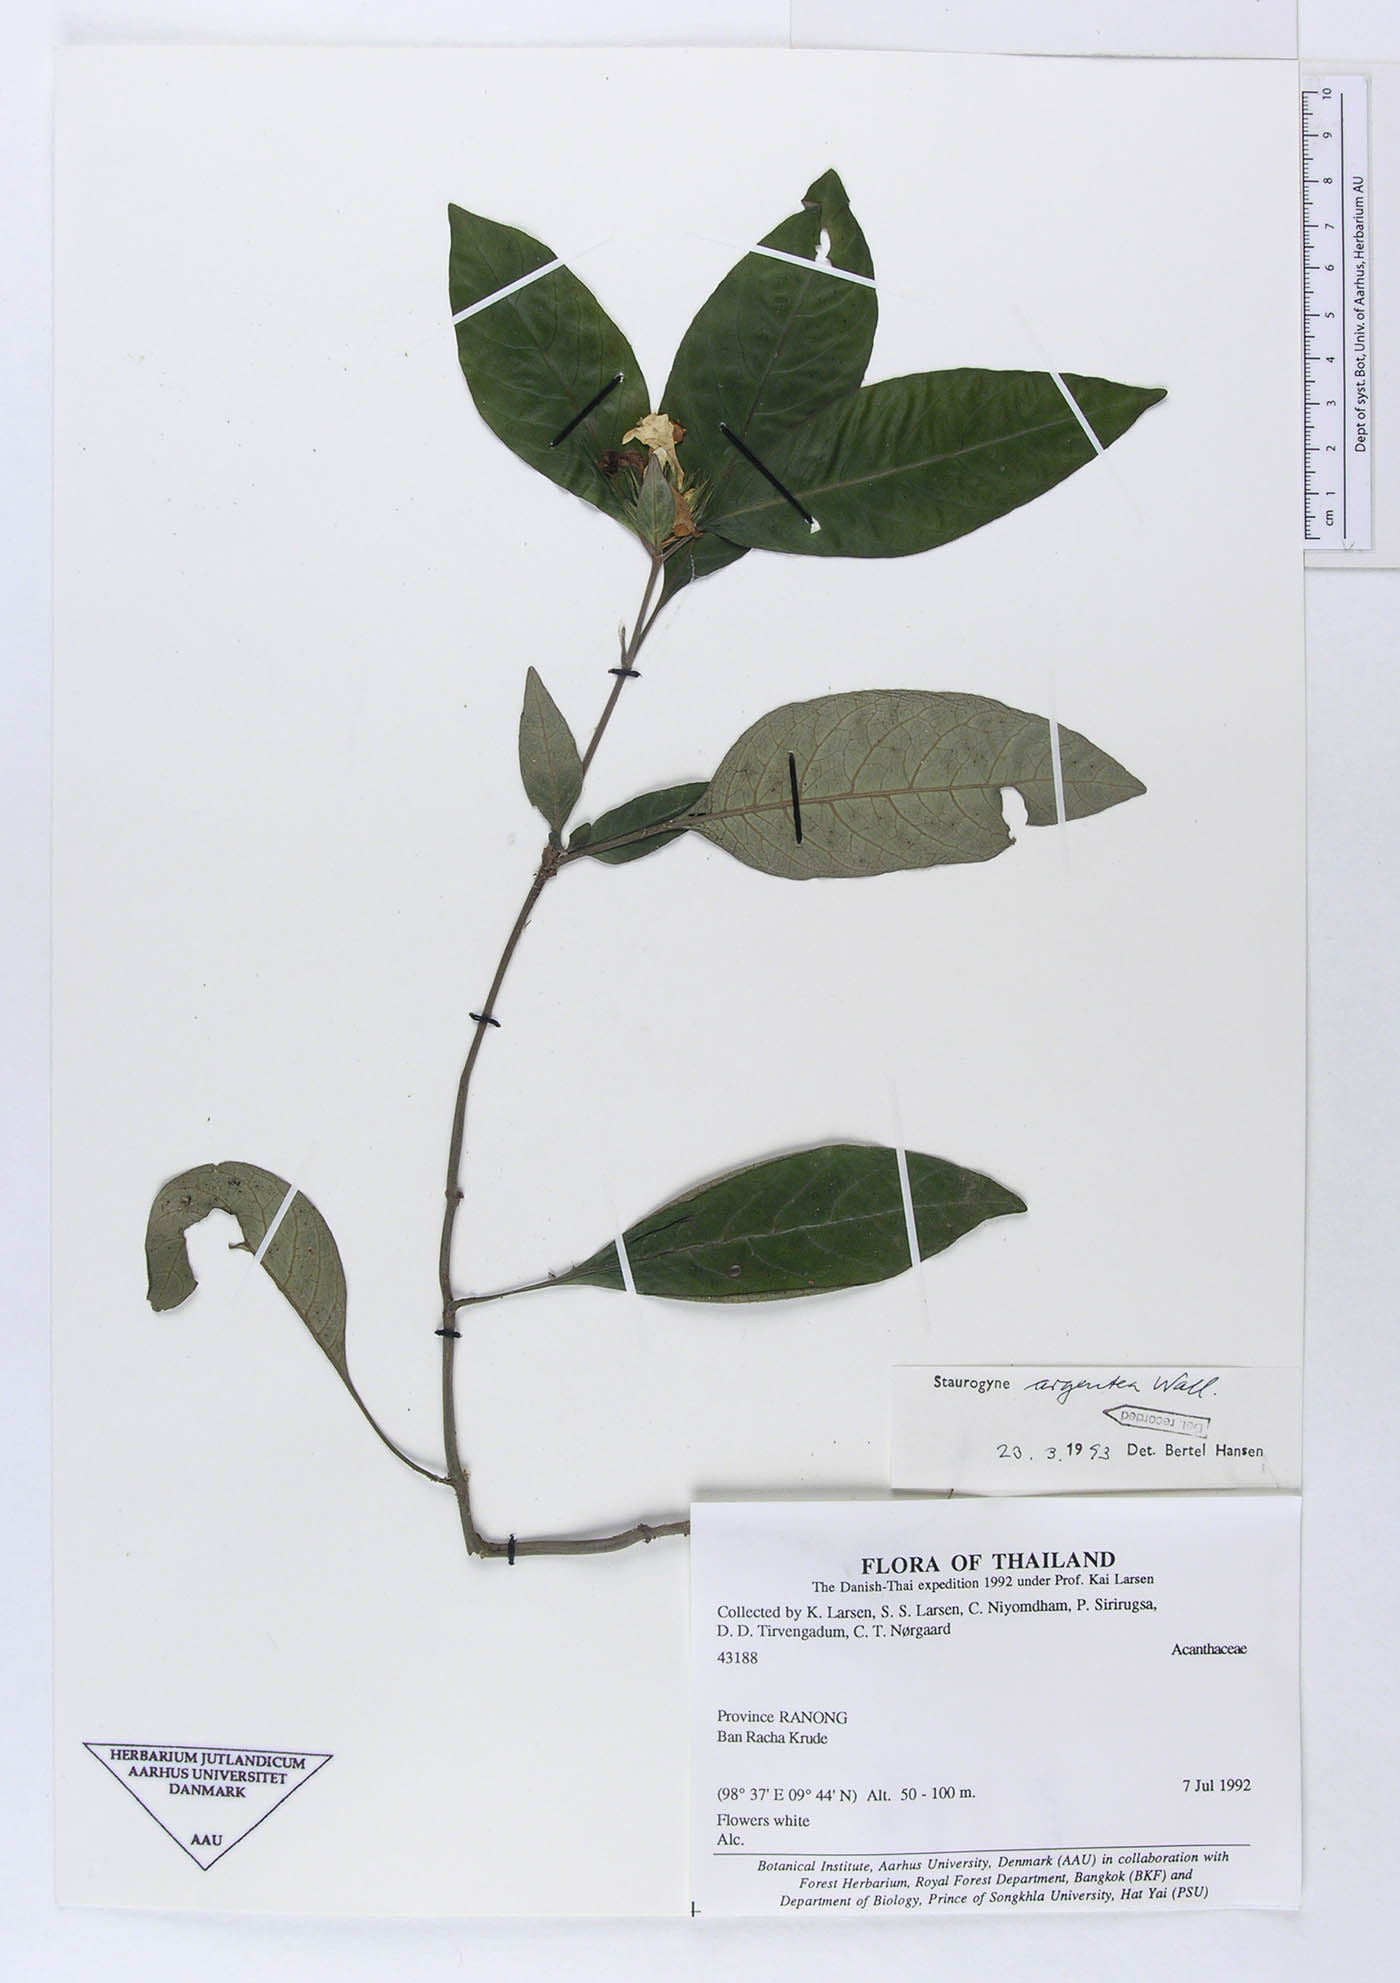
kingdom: Plantae
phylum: Tracheophyta
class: Magnoliopsida
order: Lamiales
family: Acanthaceae
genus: Staurogyne
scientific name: Staurogyne argentea
